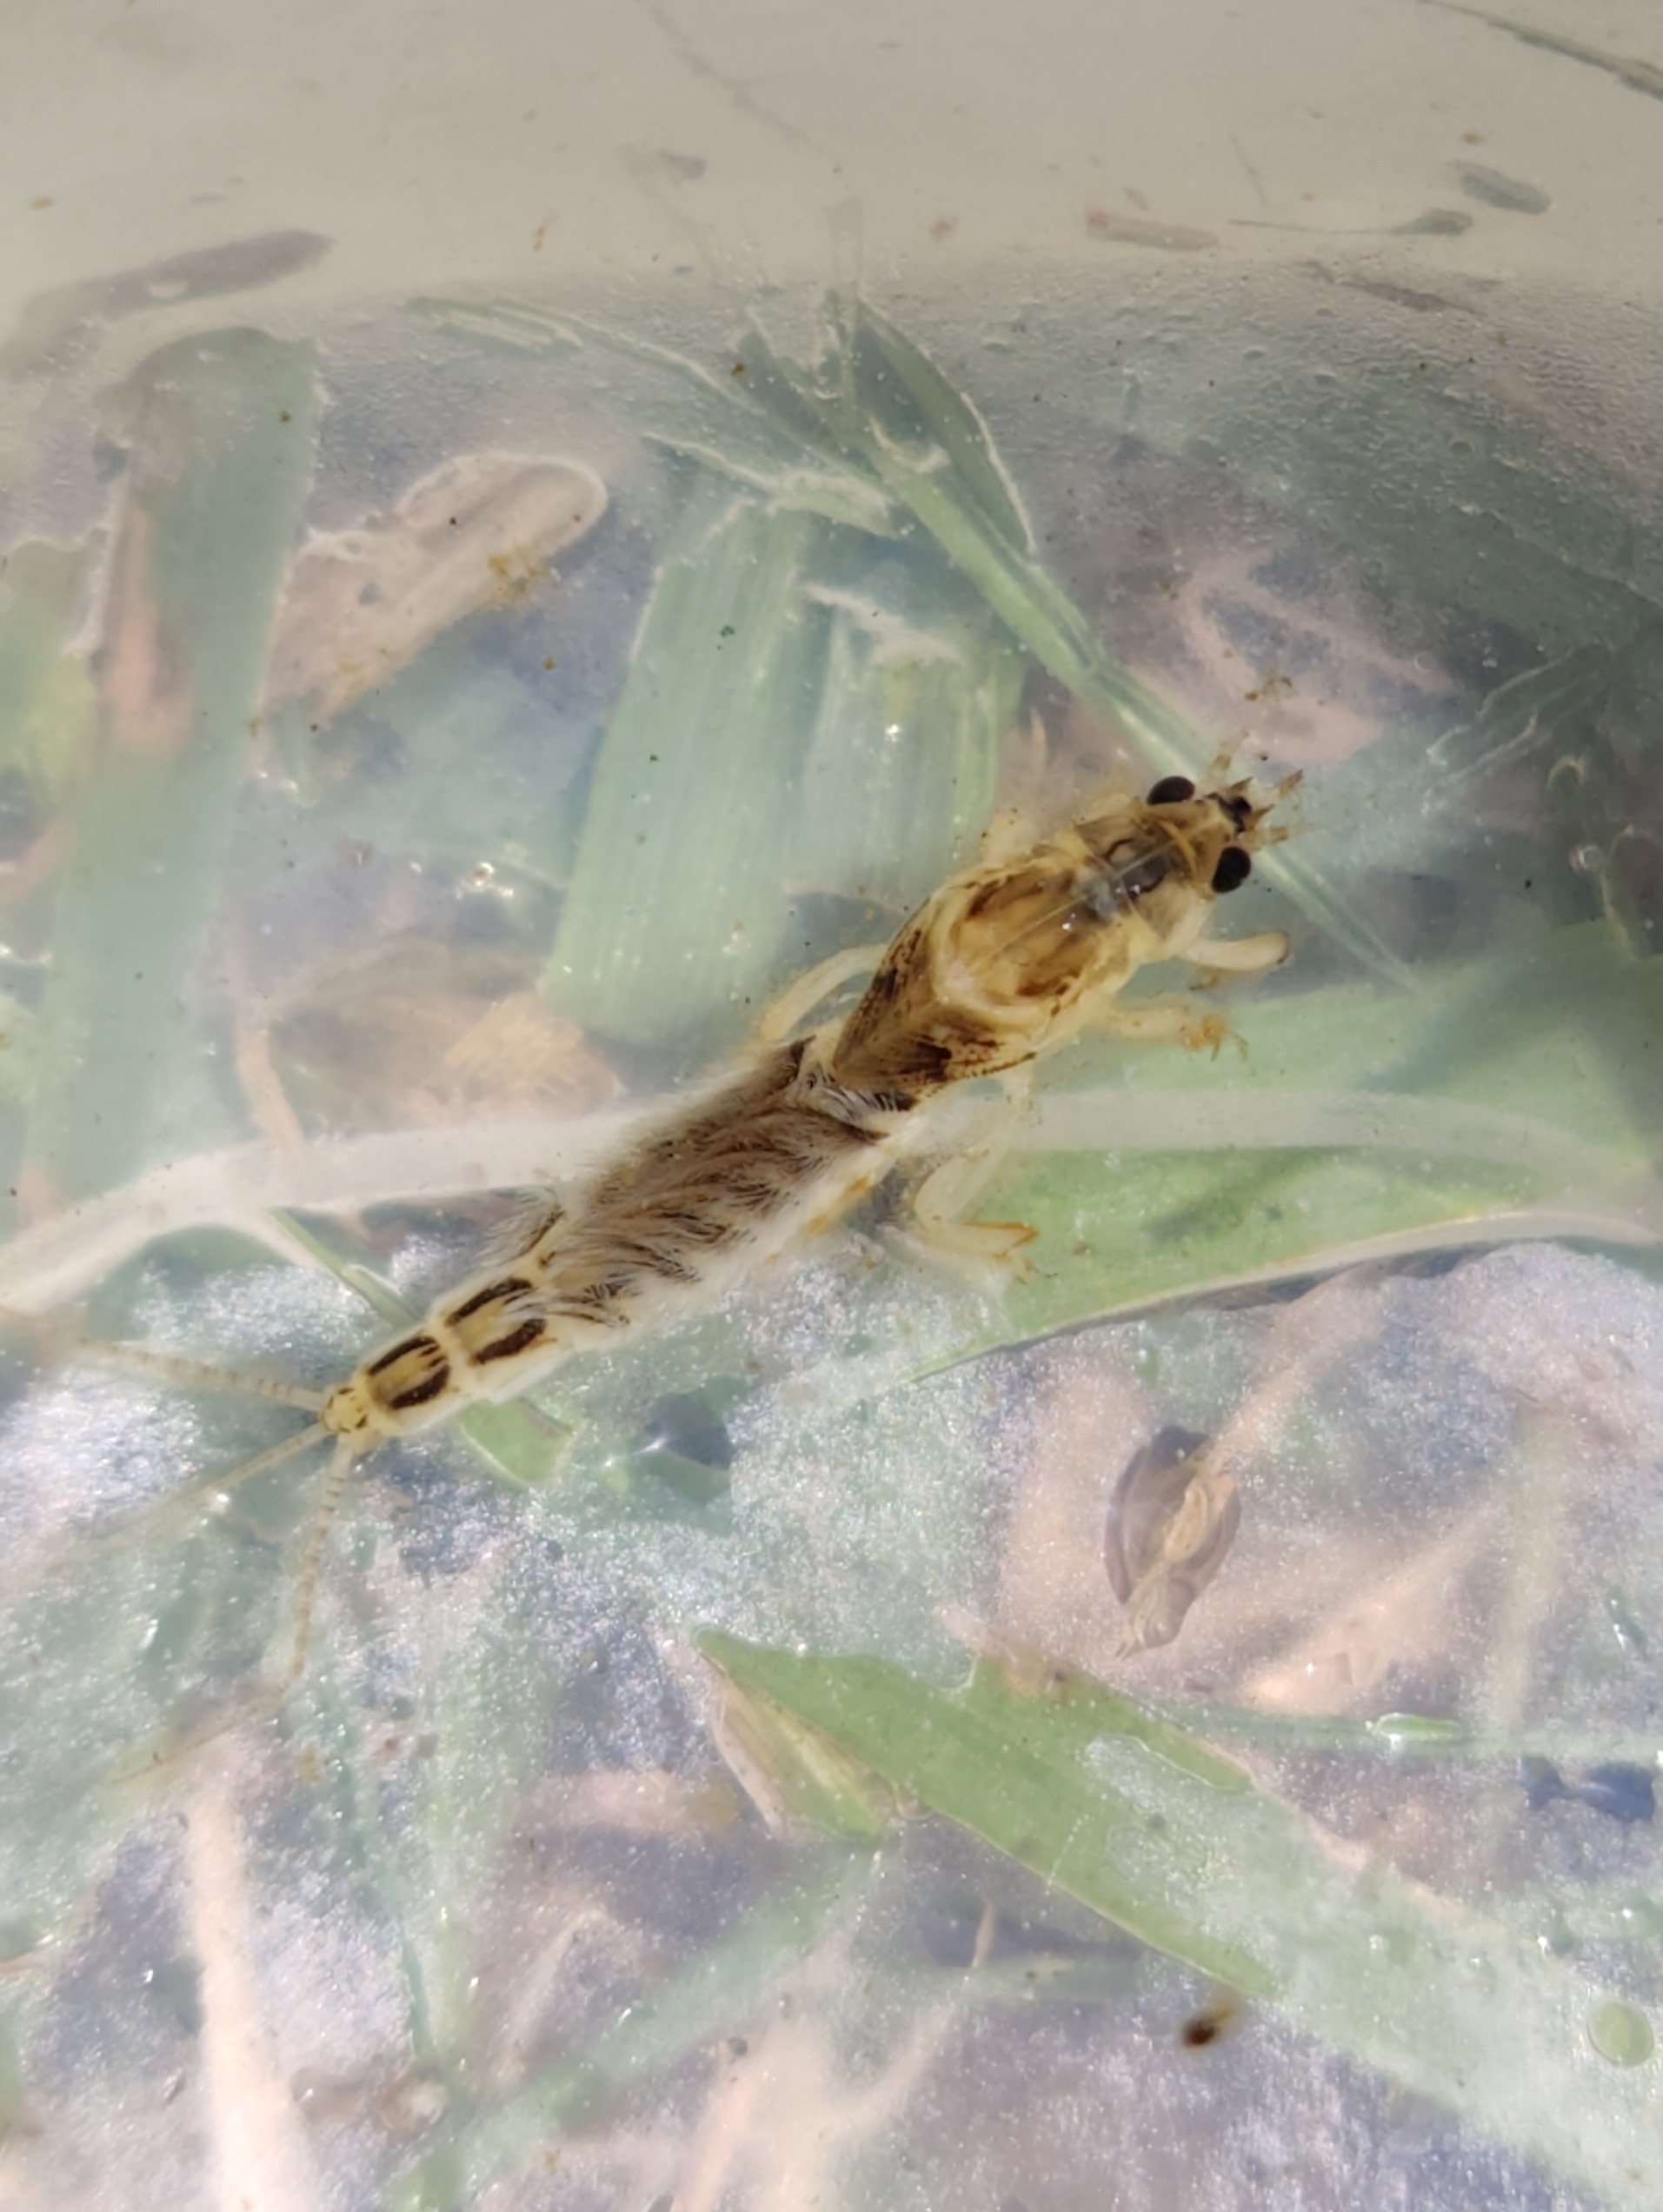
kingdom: Animalia
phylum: Arthropoda
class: Insecta
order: Ephemeroptera
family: Ephemeridae
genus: Ephemera
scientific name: Ephemera vulgata
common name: Sø-majflue
